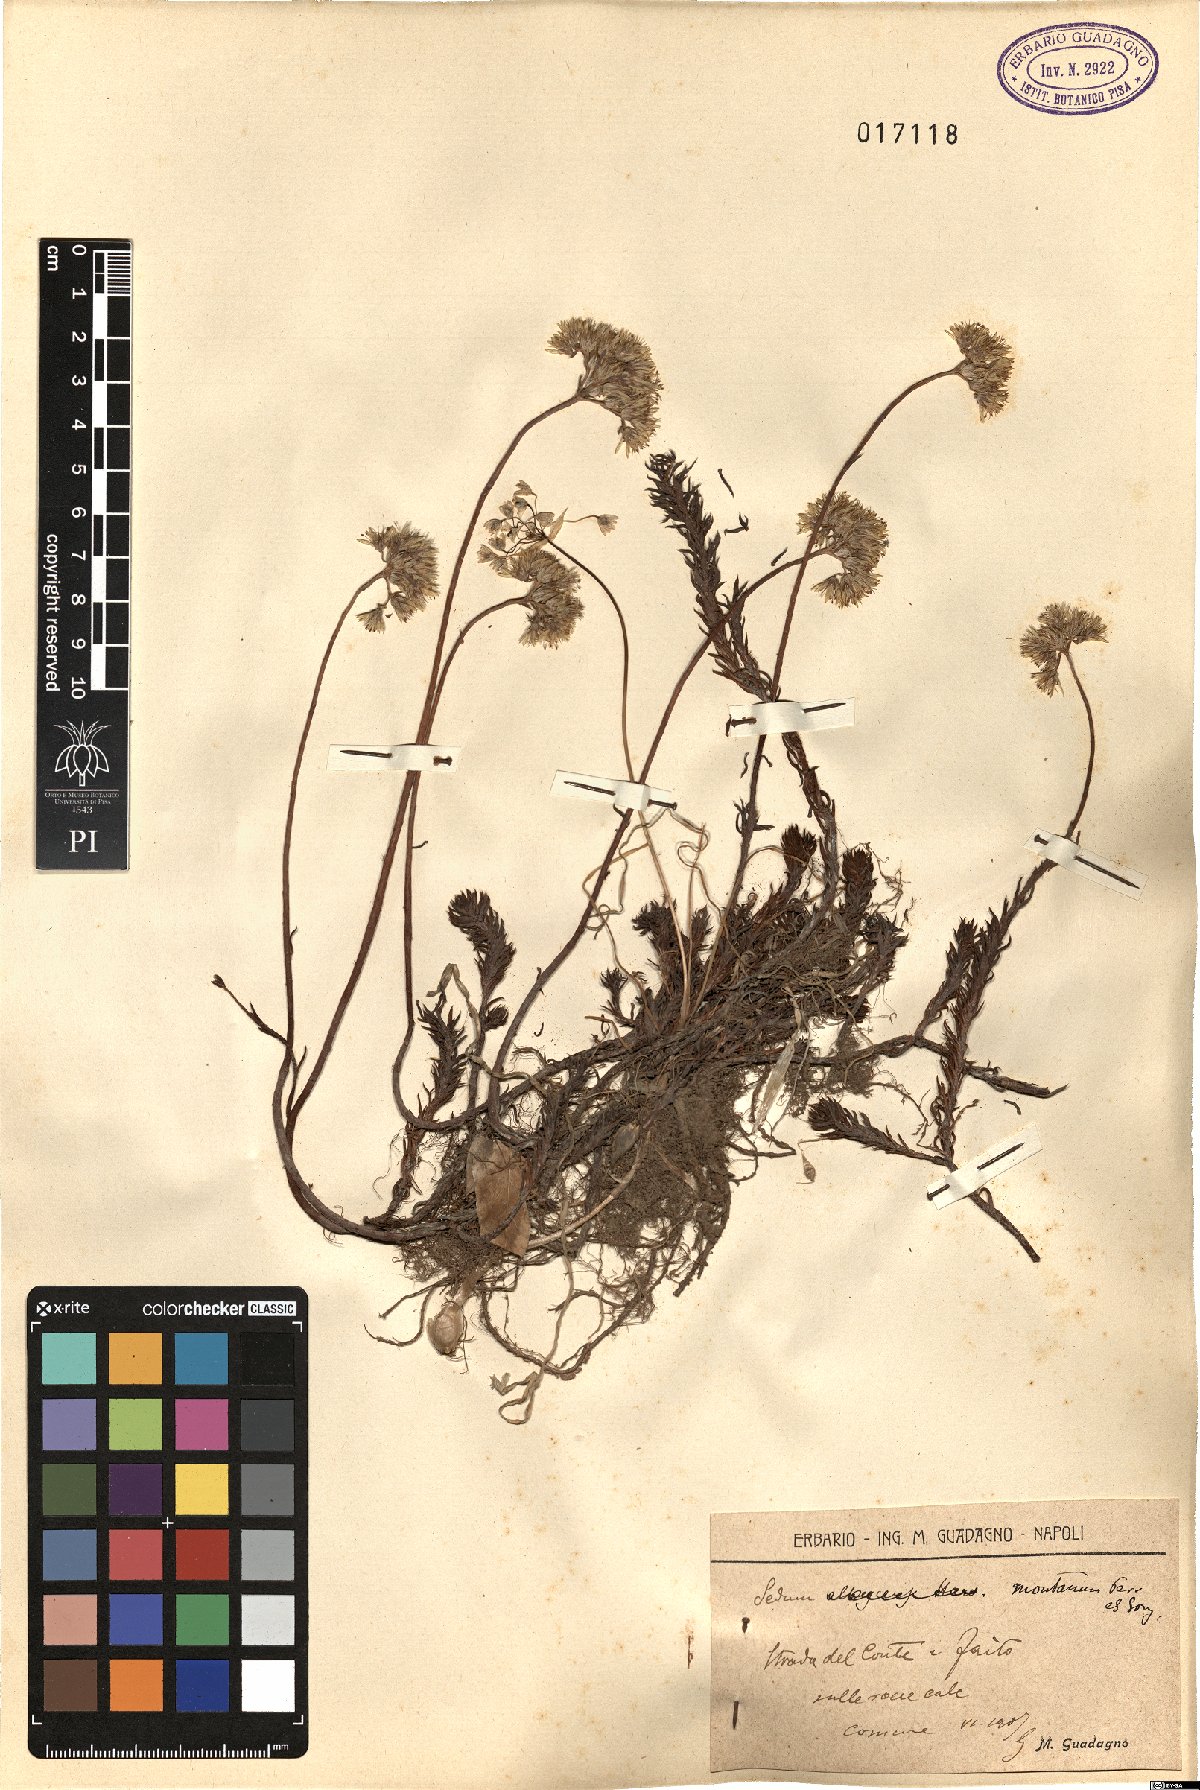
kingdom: Plantae
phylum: Tracheophyta
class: Magnoliopsida
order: Saxifragales
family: Crassulaceae
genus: Petrosedum
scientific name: Petrosedum montanum
